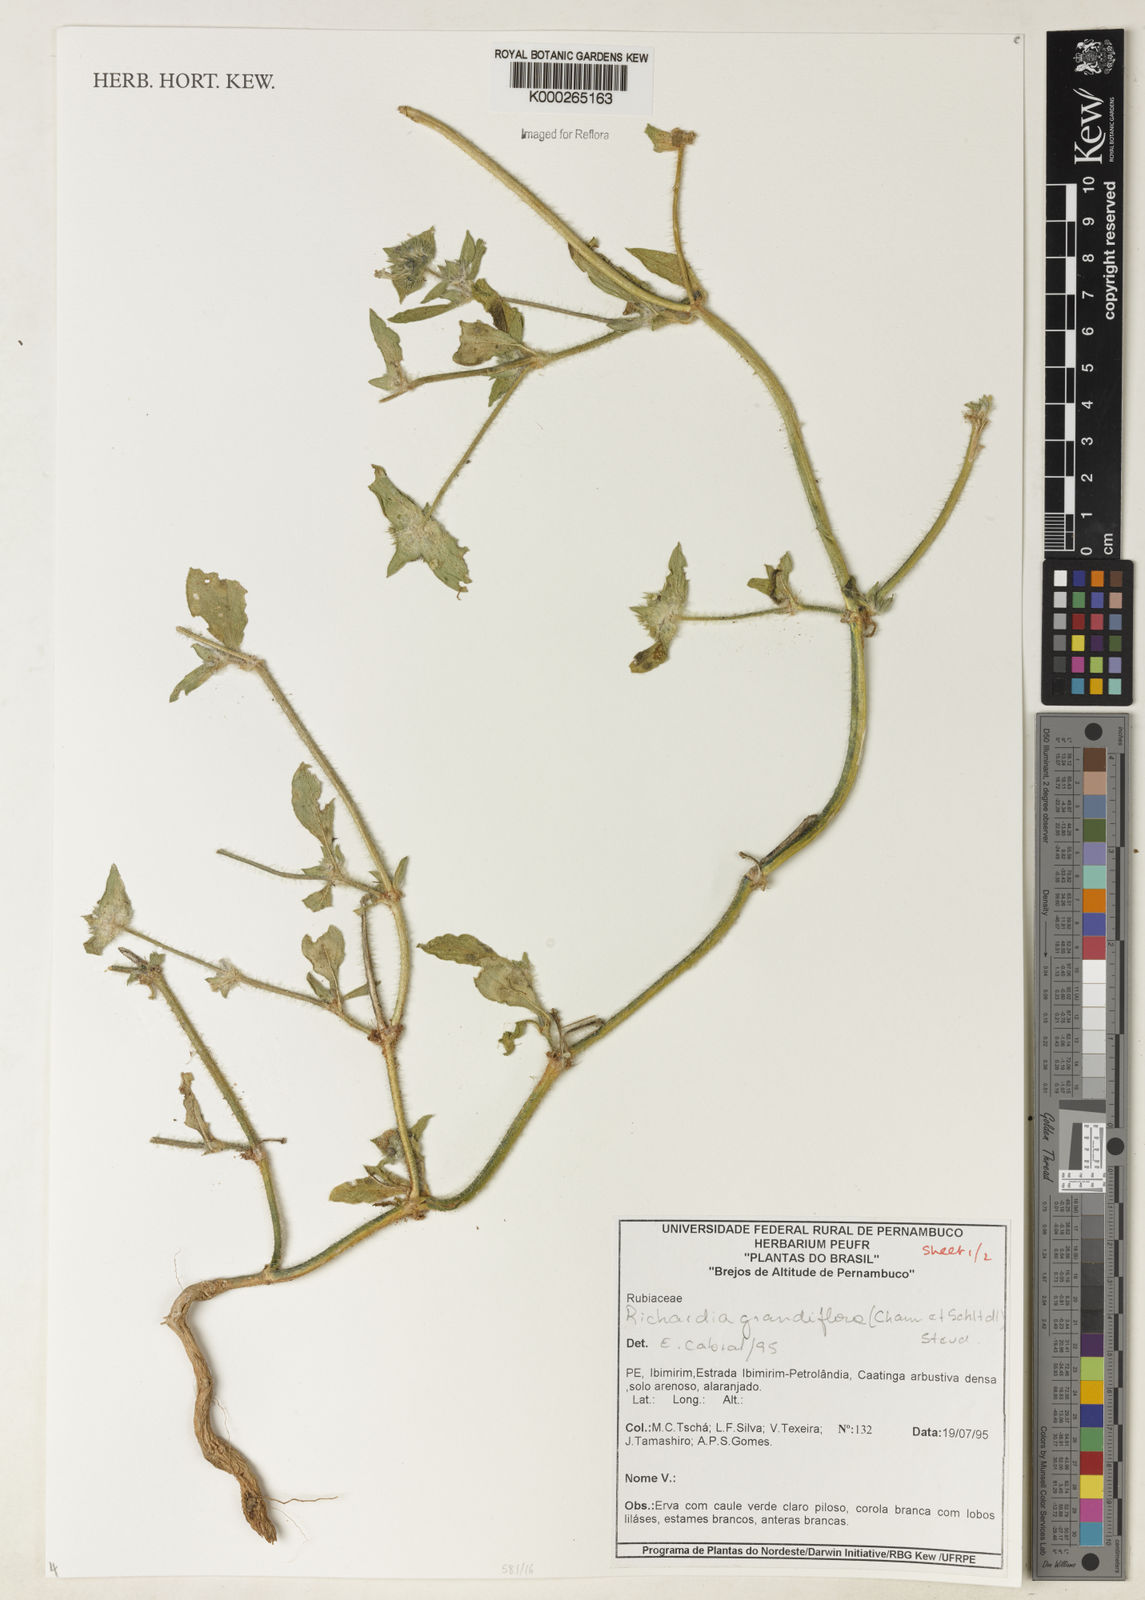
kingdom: Plantae
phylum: Tracheophyta
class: Magnoliopsida
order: Gentianales
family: Rubiaceae
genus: Richardia
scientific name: Richardia grandiflora
